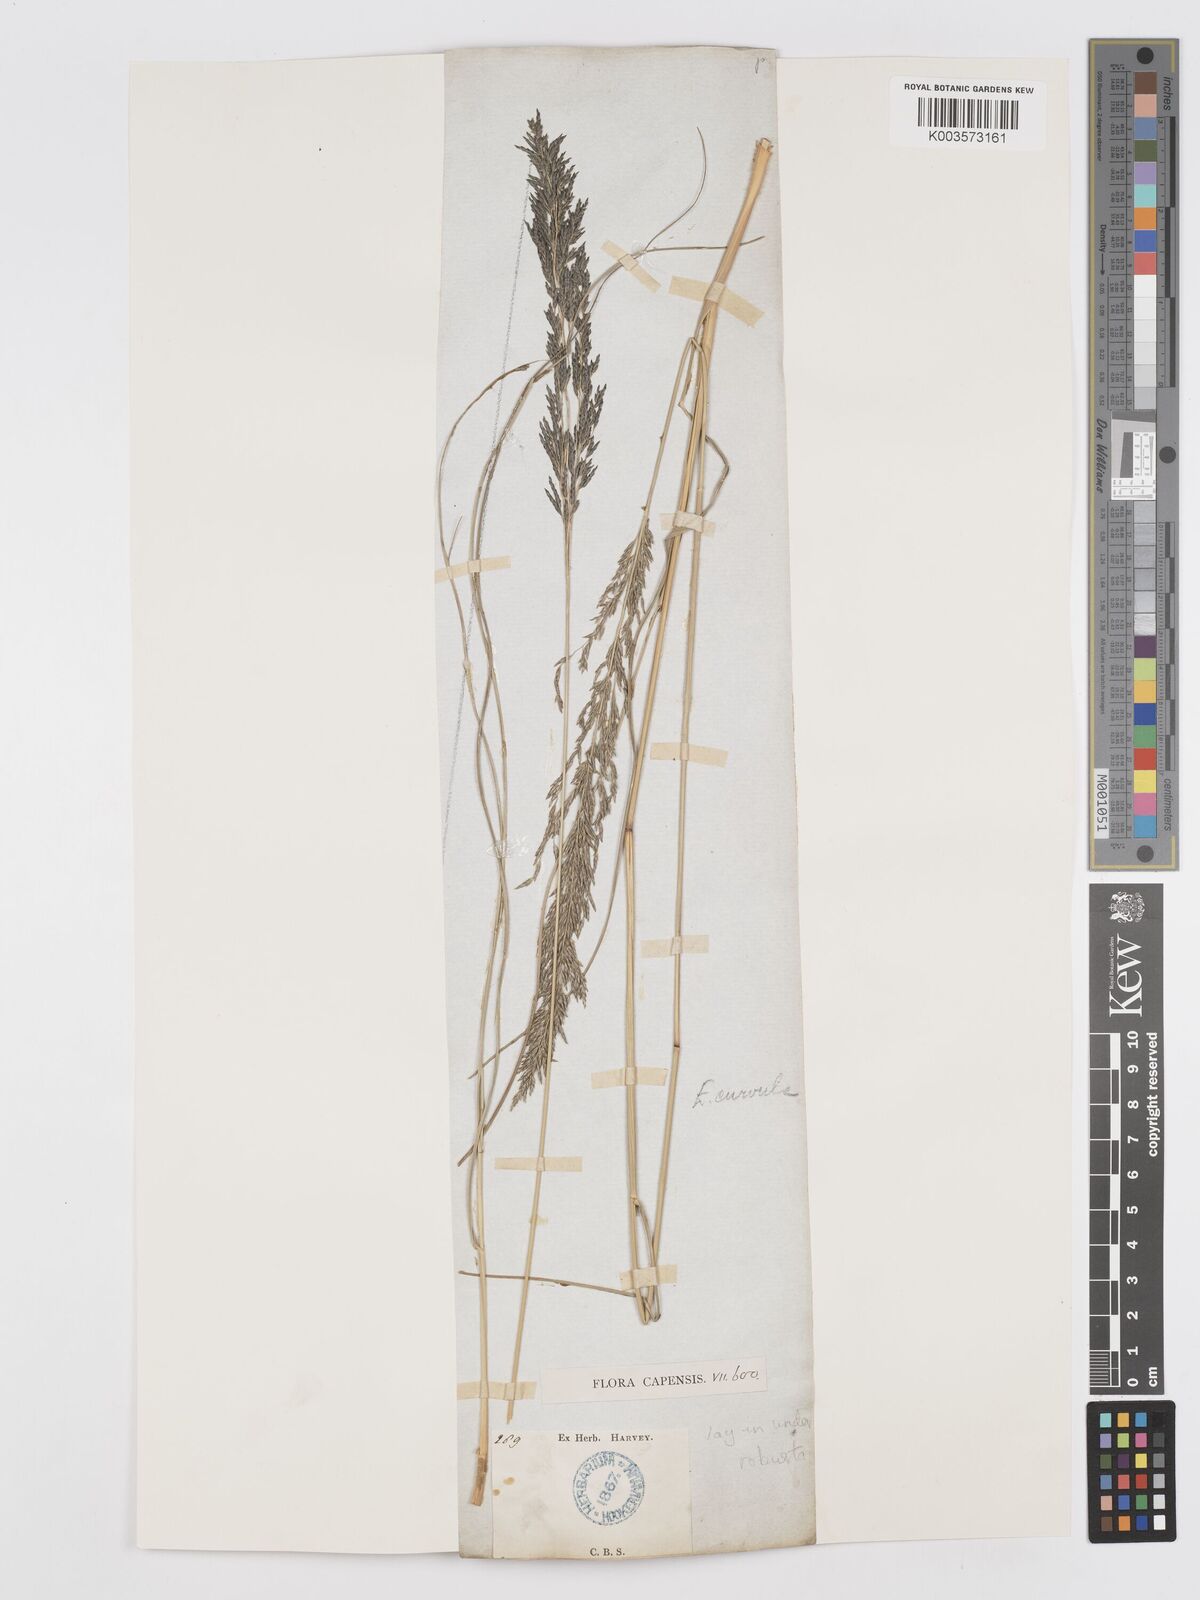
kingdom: Plantae
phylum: Tracheophyta
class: Liliopsida
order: Poales
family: Poaceae
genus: Eragrostis
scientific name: Eragrostis curvula
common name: African love-grass
